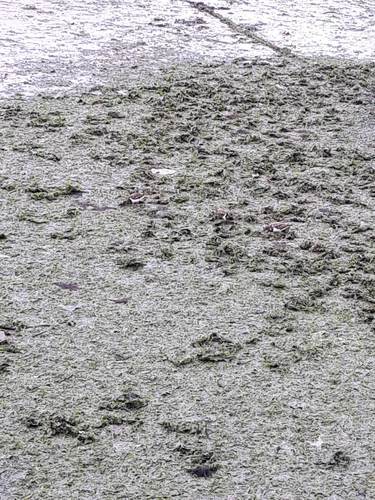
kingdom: Animalia
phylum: Chordata
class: Aves
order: Charadriiformes
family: Scolopacidae
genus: Arenaria
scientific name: Arenaria interpres
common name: Ruddy turnstone
